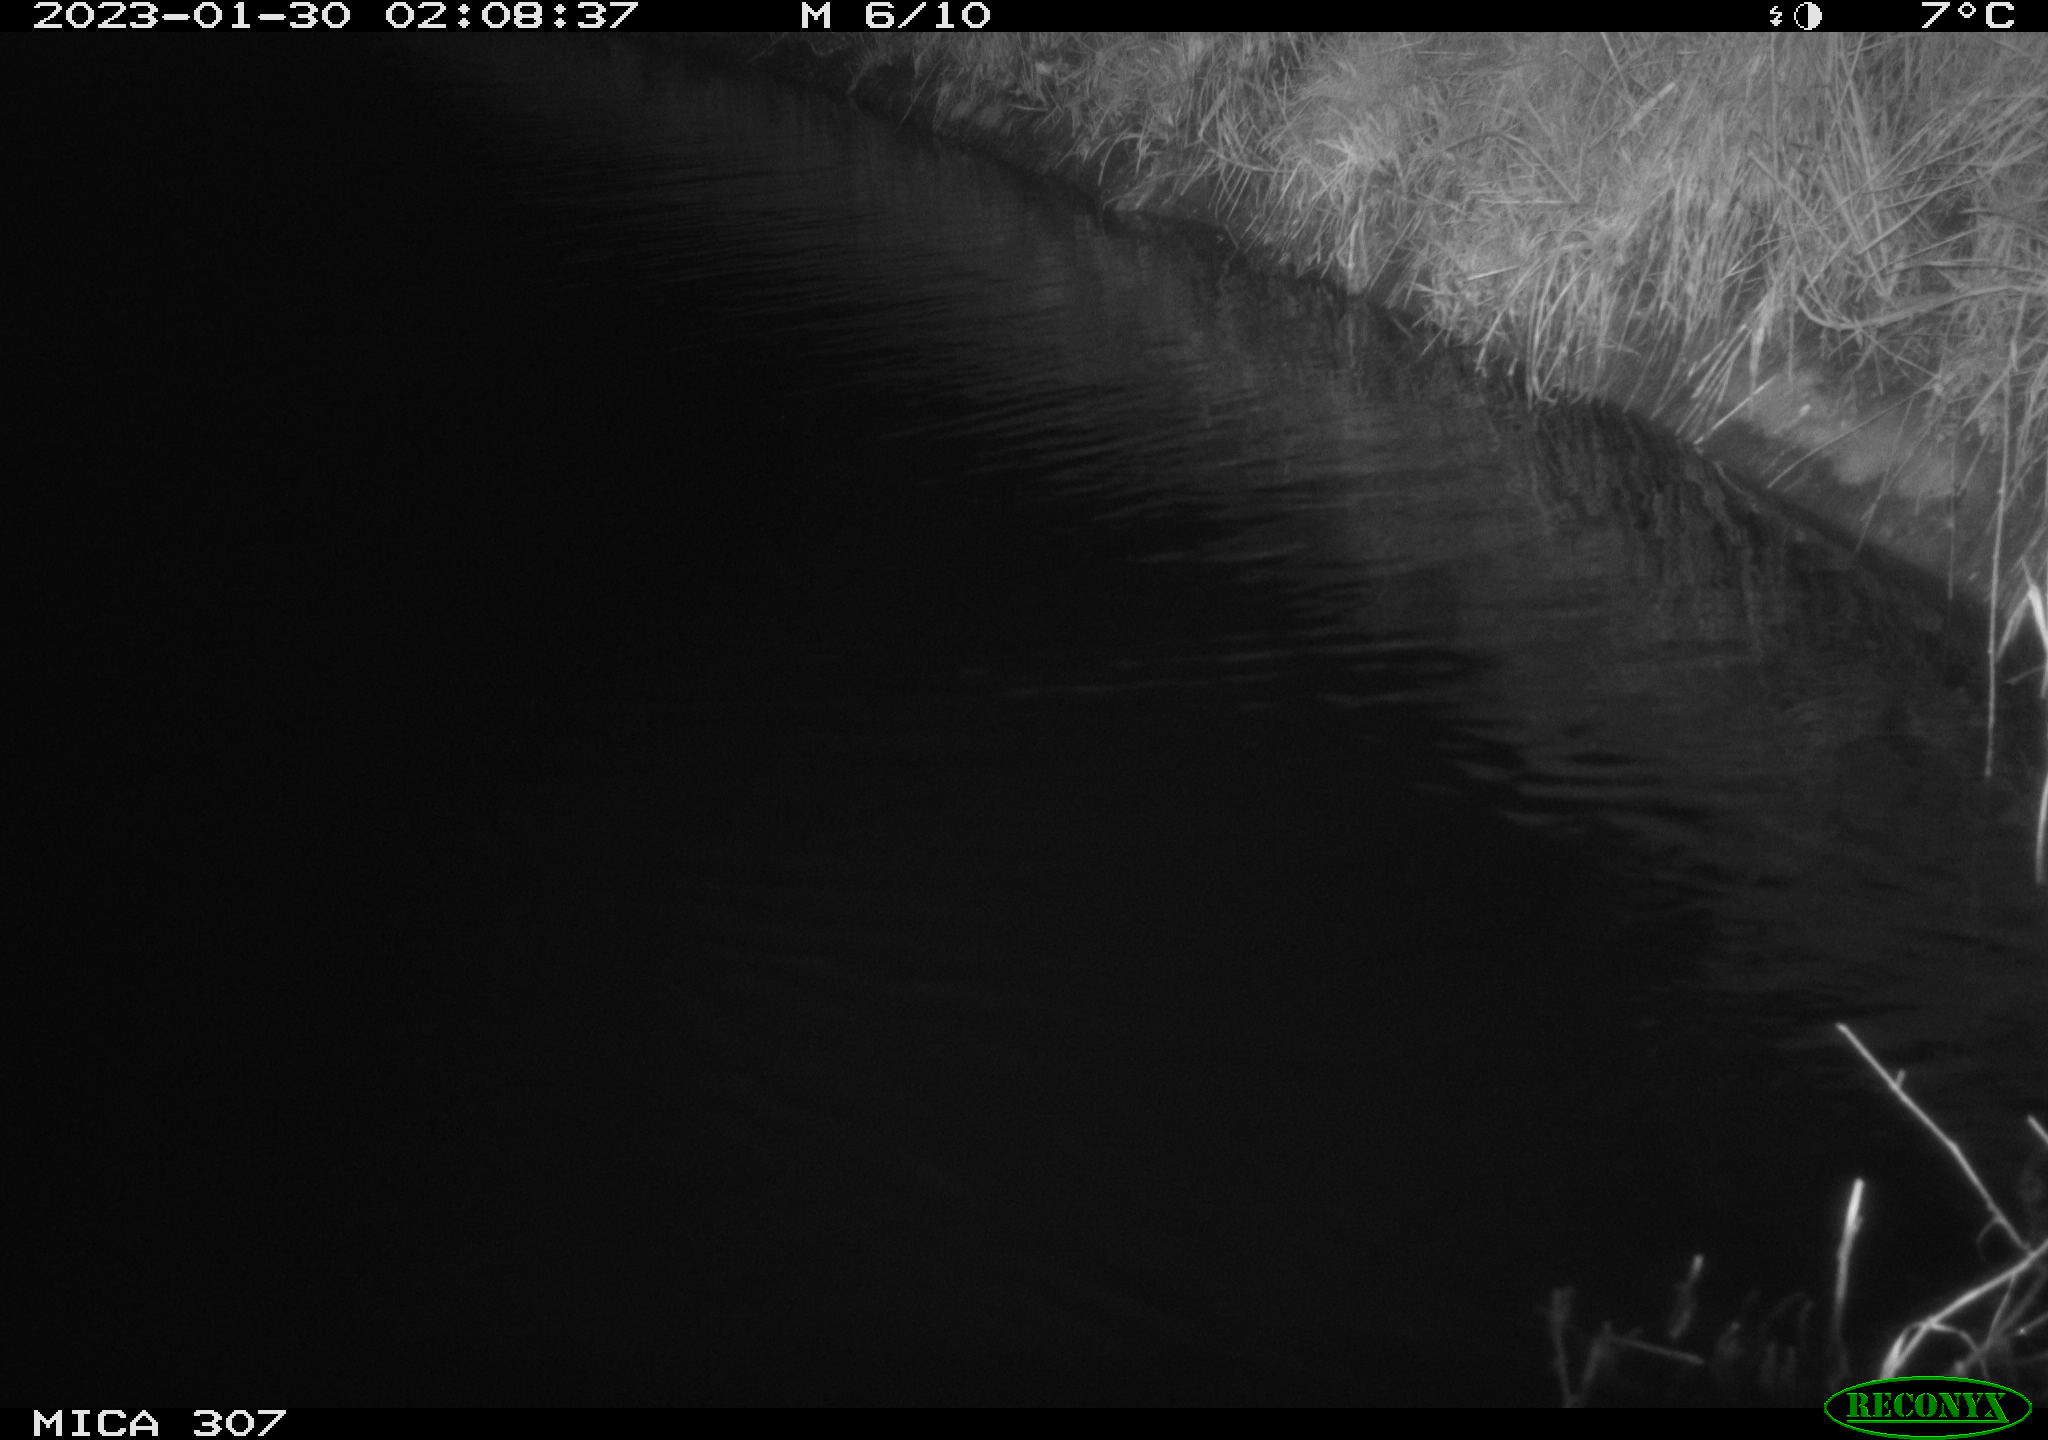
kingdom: Animalia
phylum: Chordata
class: Mammalia
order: Rodentia
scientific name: Rodentia
